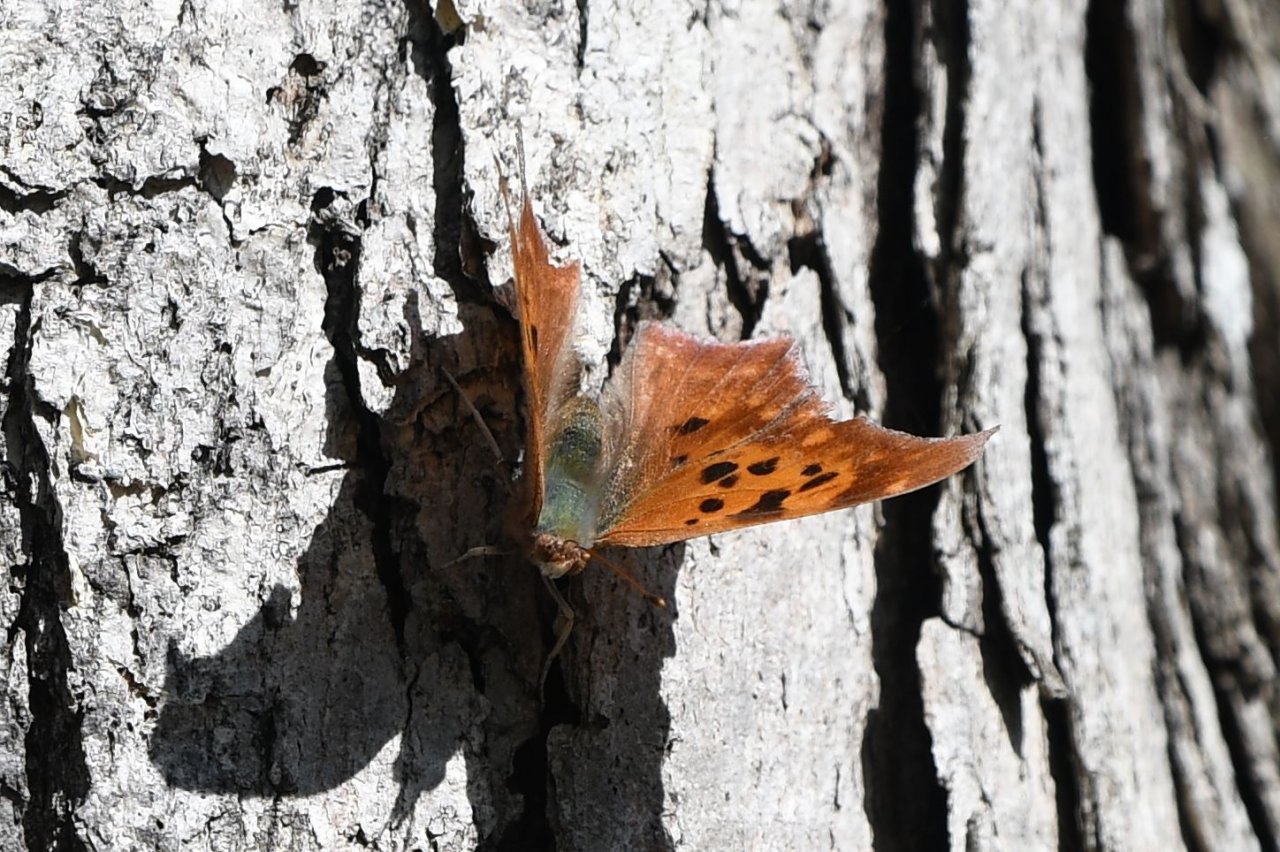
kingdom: Animalia
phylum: Arthropoda
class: Insecta
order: Lepidoptera
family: Nymphalidae
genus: Polygonia
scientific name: Polygonia interrogationis
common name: Question Mark
